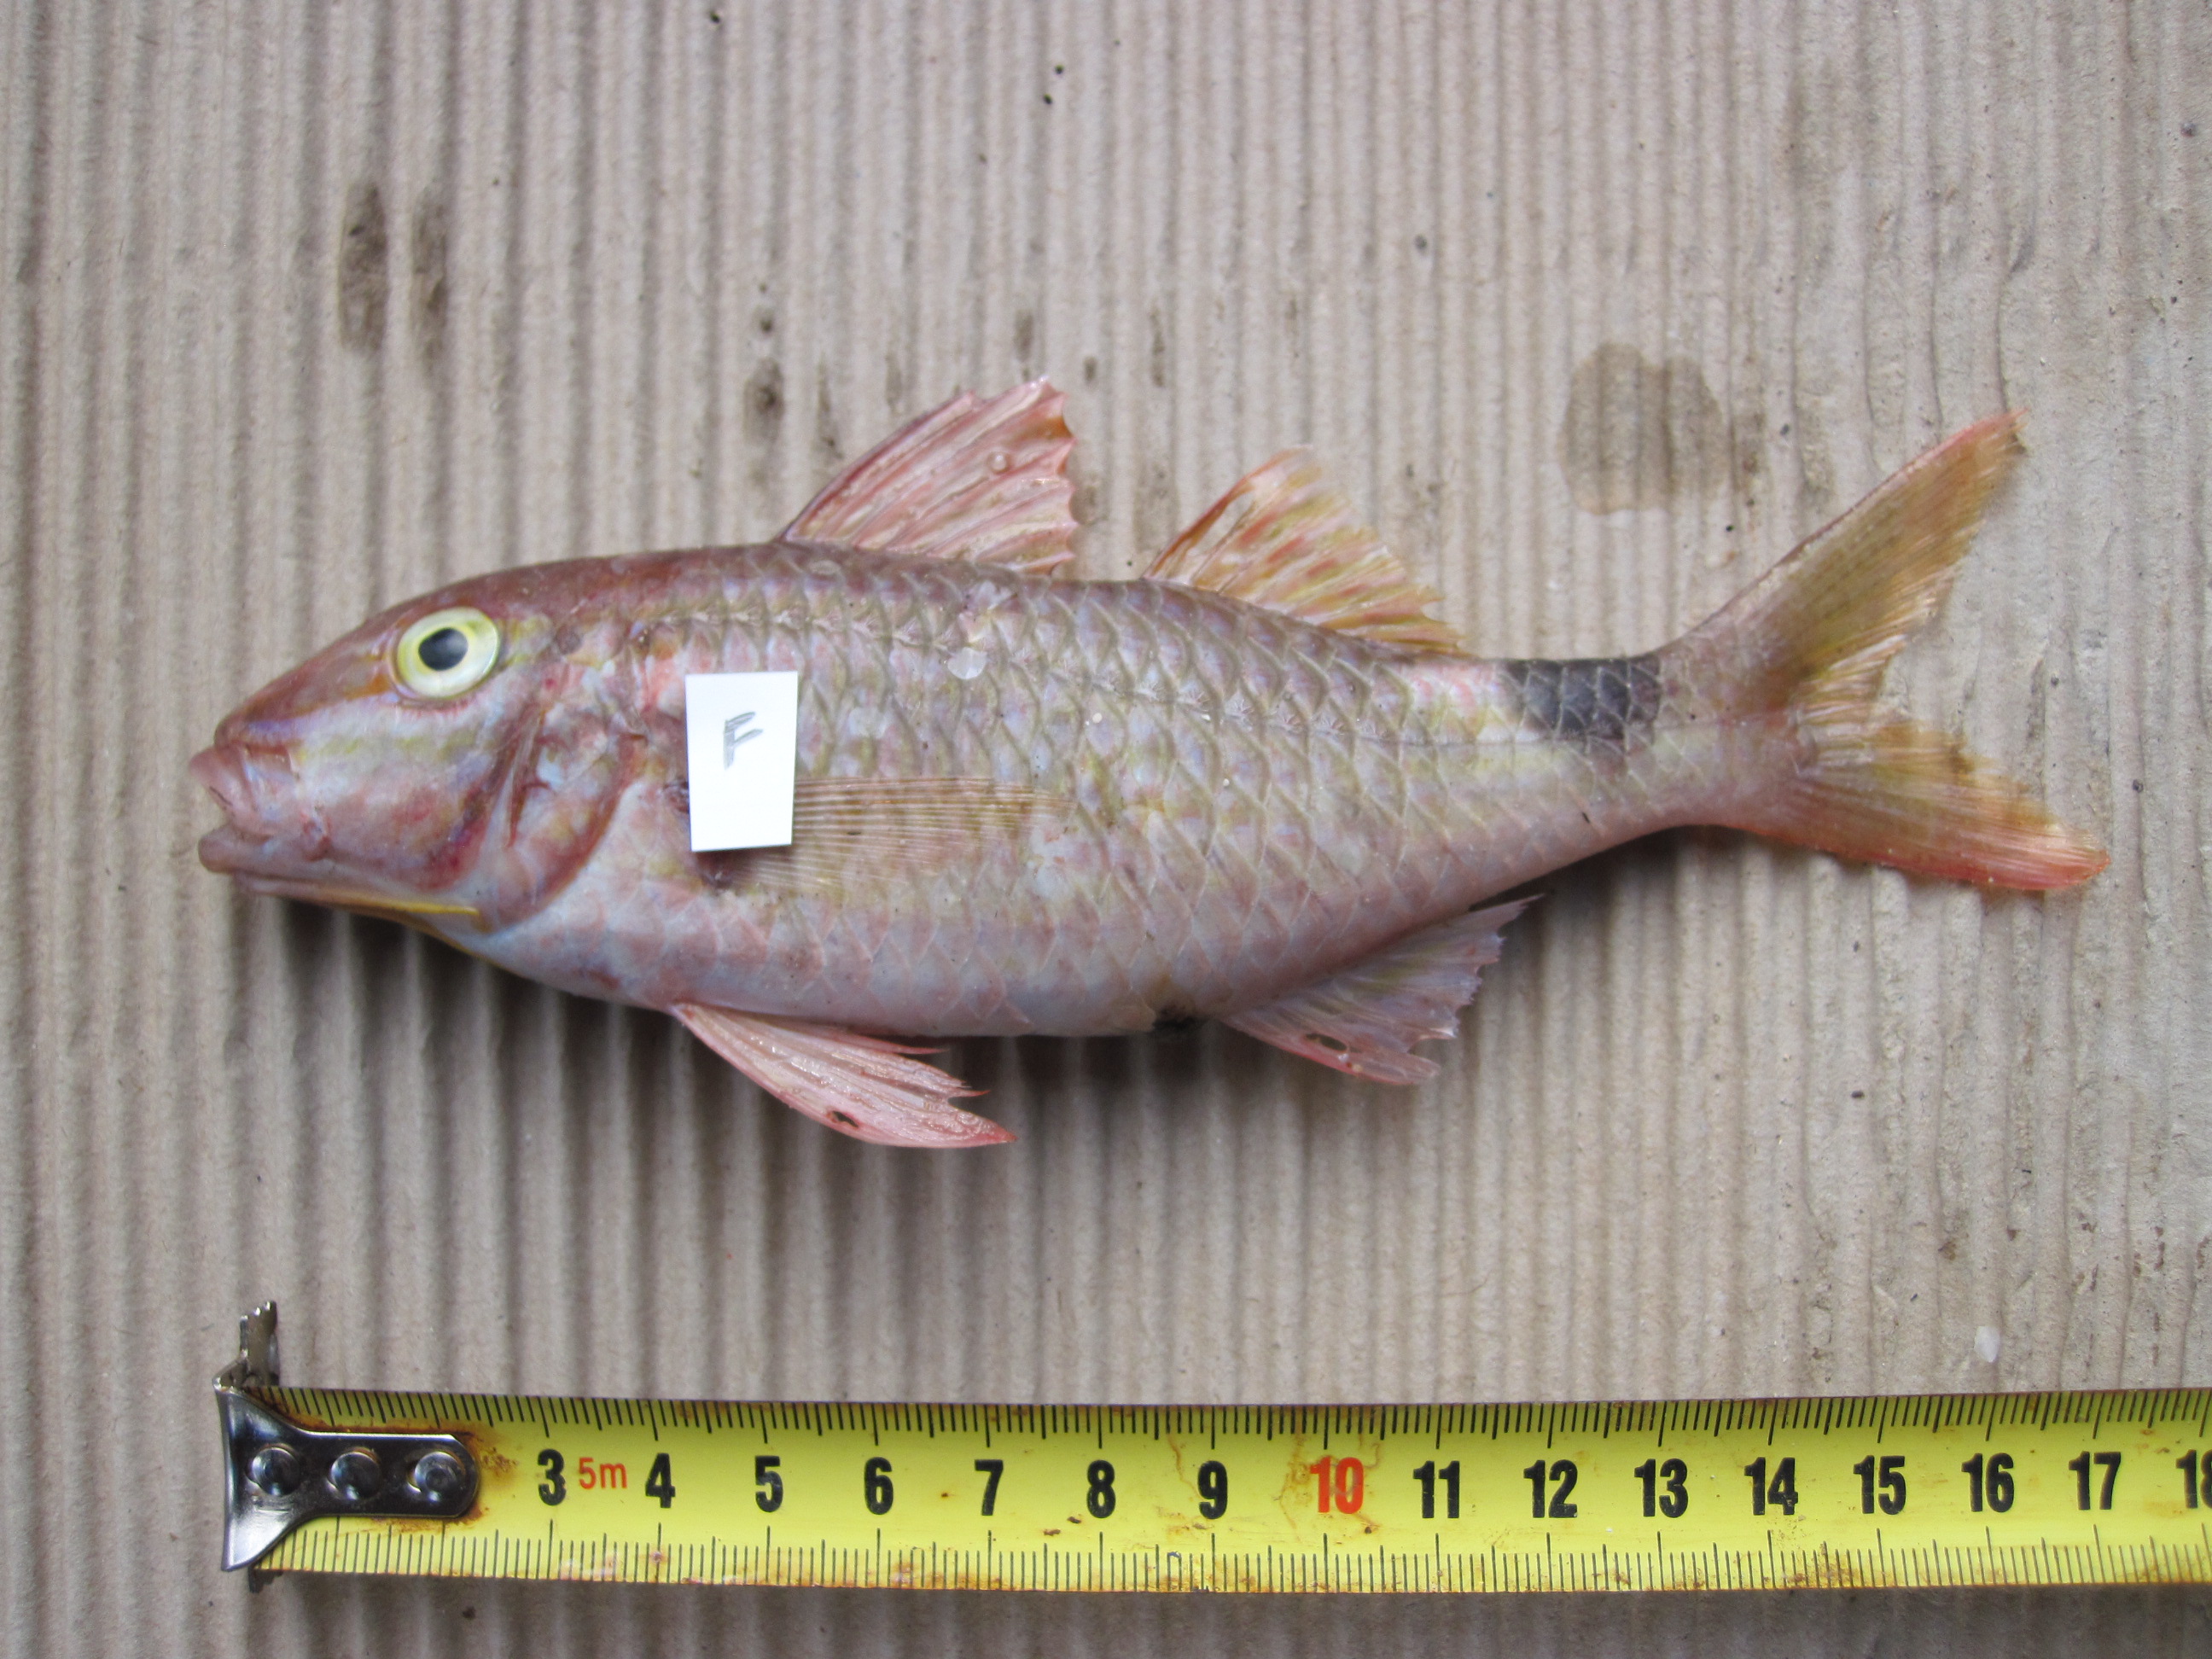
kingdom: Animalia
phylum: Chordata
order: Perciformes
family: Mullidae
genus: Parupeneus
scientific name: Parupeneus rubescens
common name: Rosy goatfish
